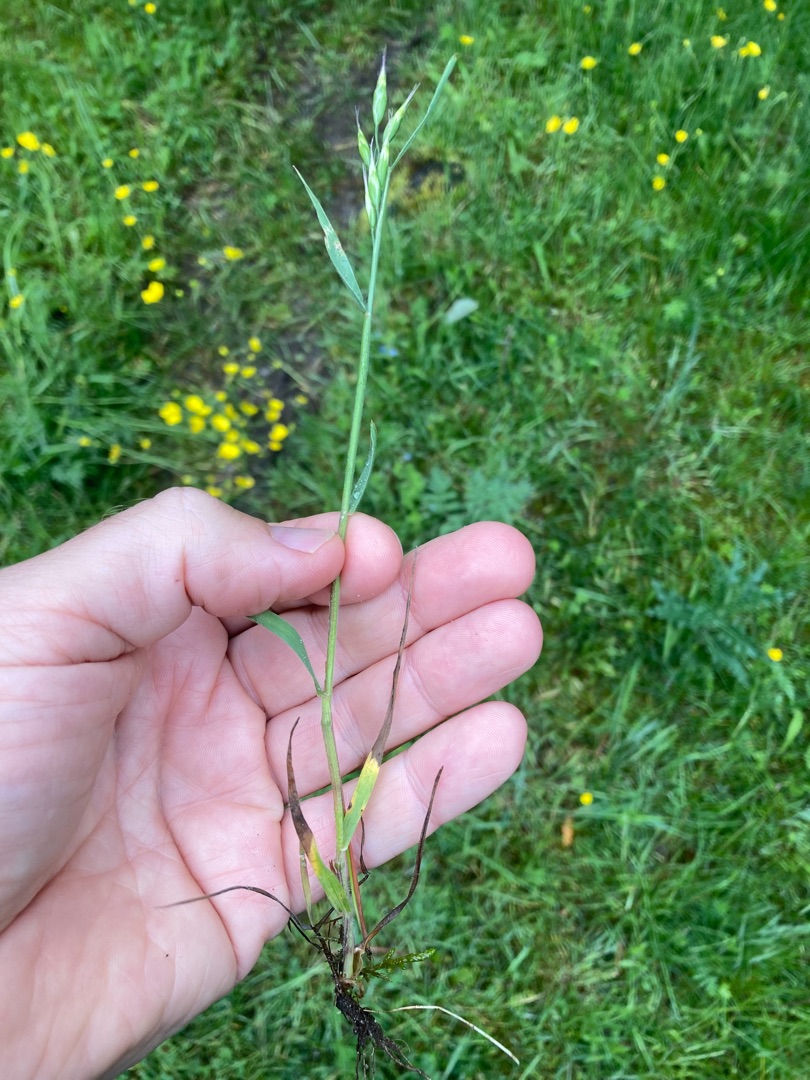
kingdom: Plantae
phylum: Tracheophyta
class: Liliopsida
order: Poales
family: Poaceae
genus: Bromus
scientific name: Bromus hordeaceus
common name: Blød hejre
